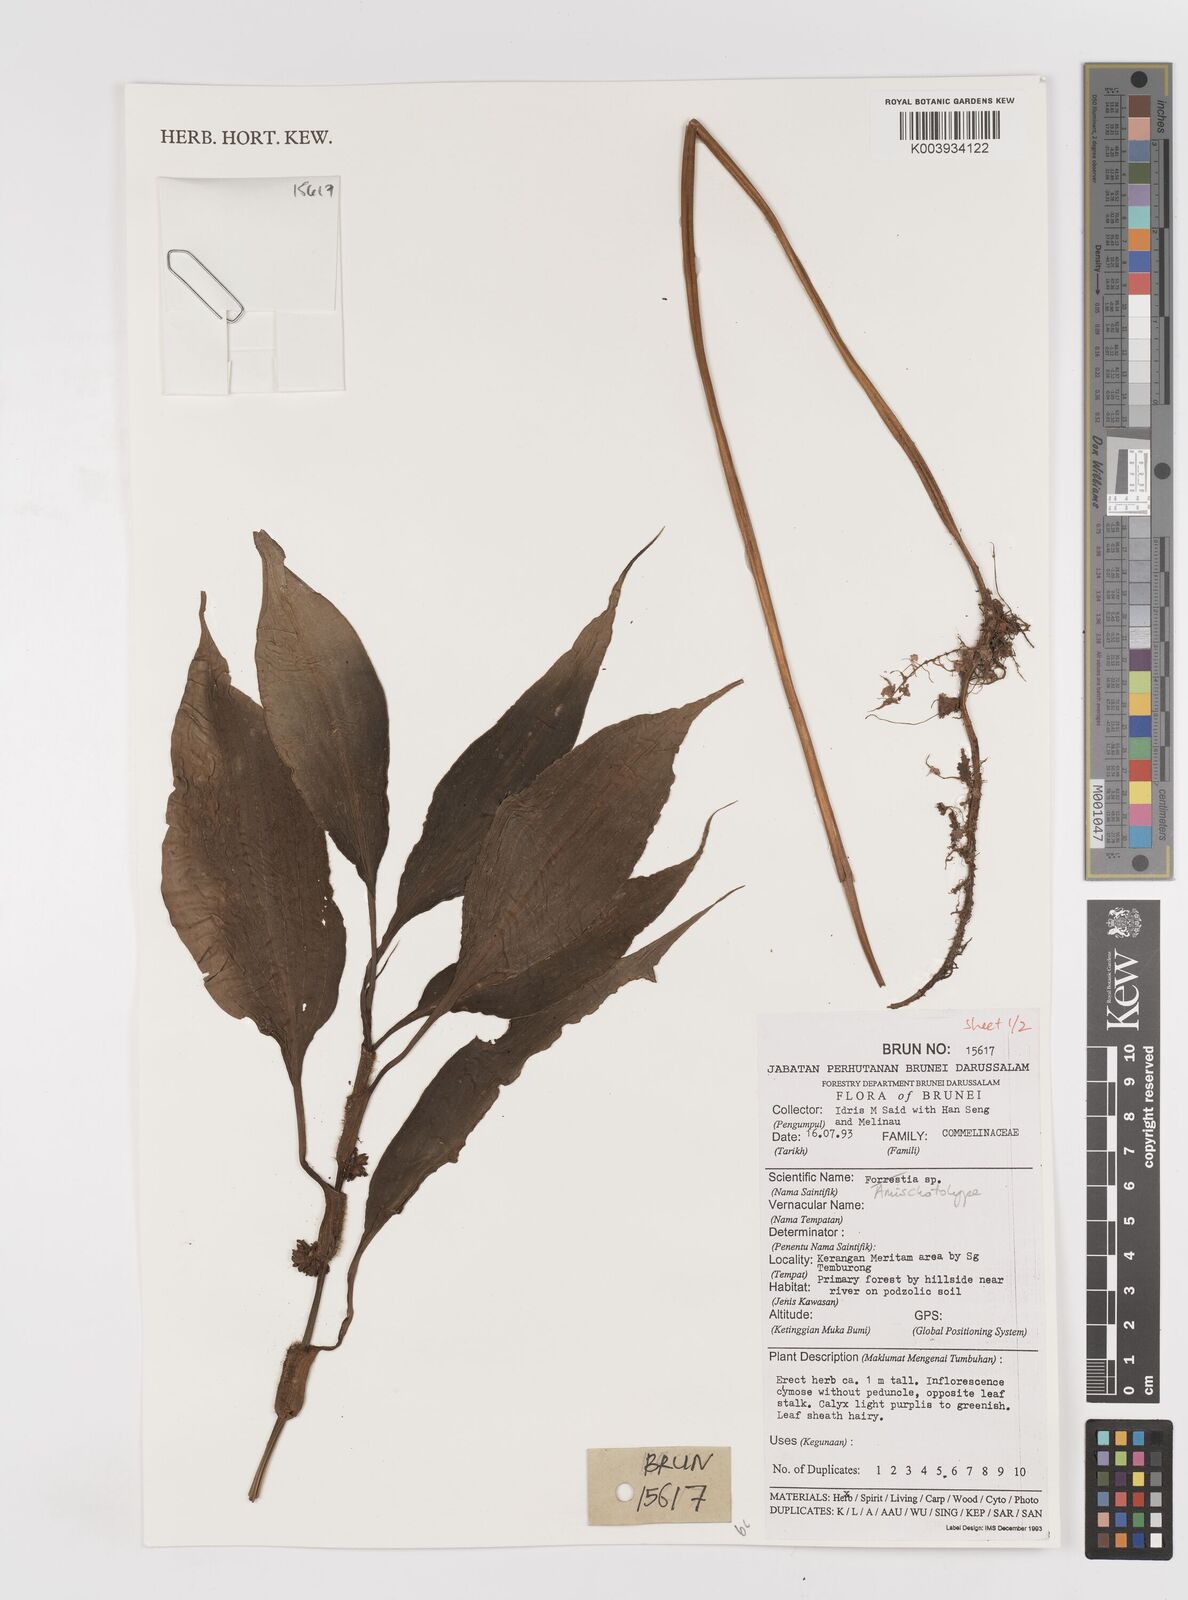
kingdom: Plantae
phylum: Tracheophyta
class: Liliopsida
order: Commelinales
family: Commelinaceae
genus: Amischotolype
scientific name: Amischotolype
